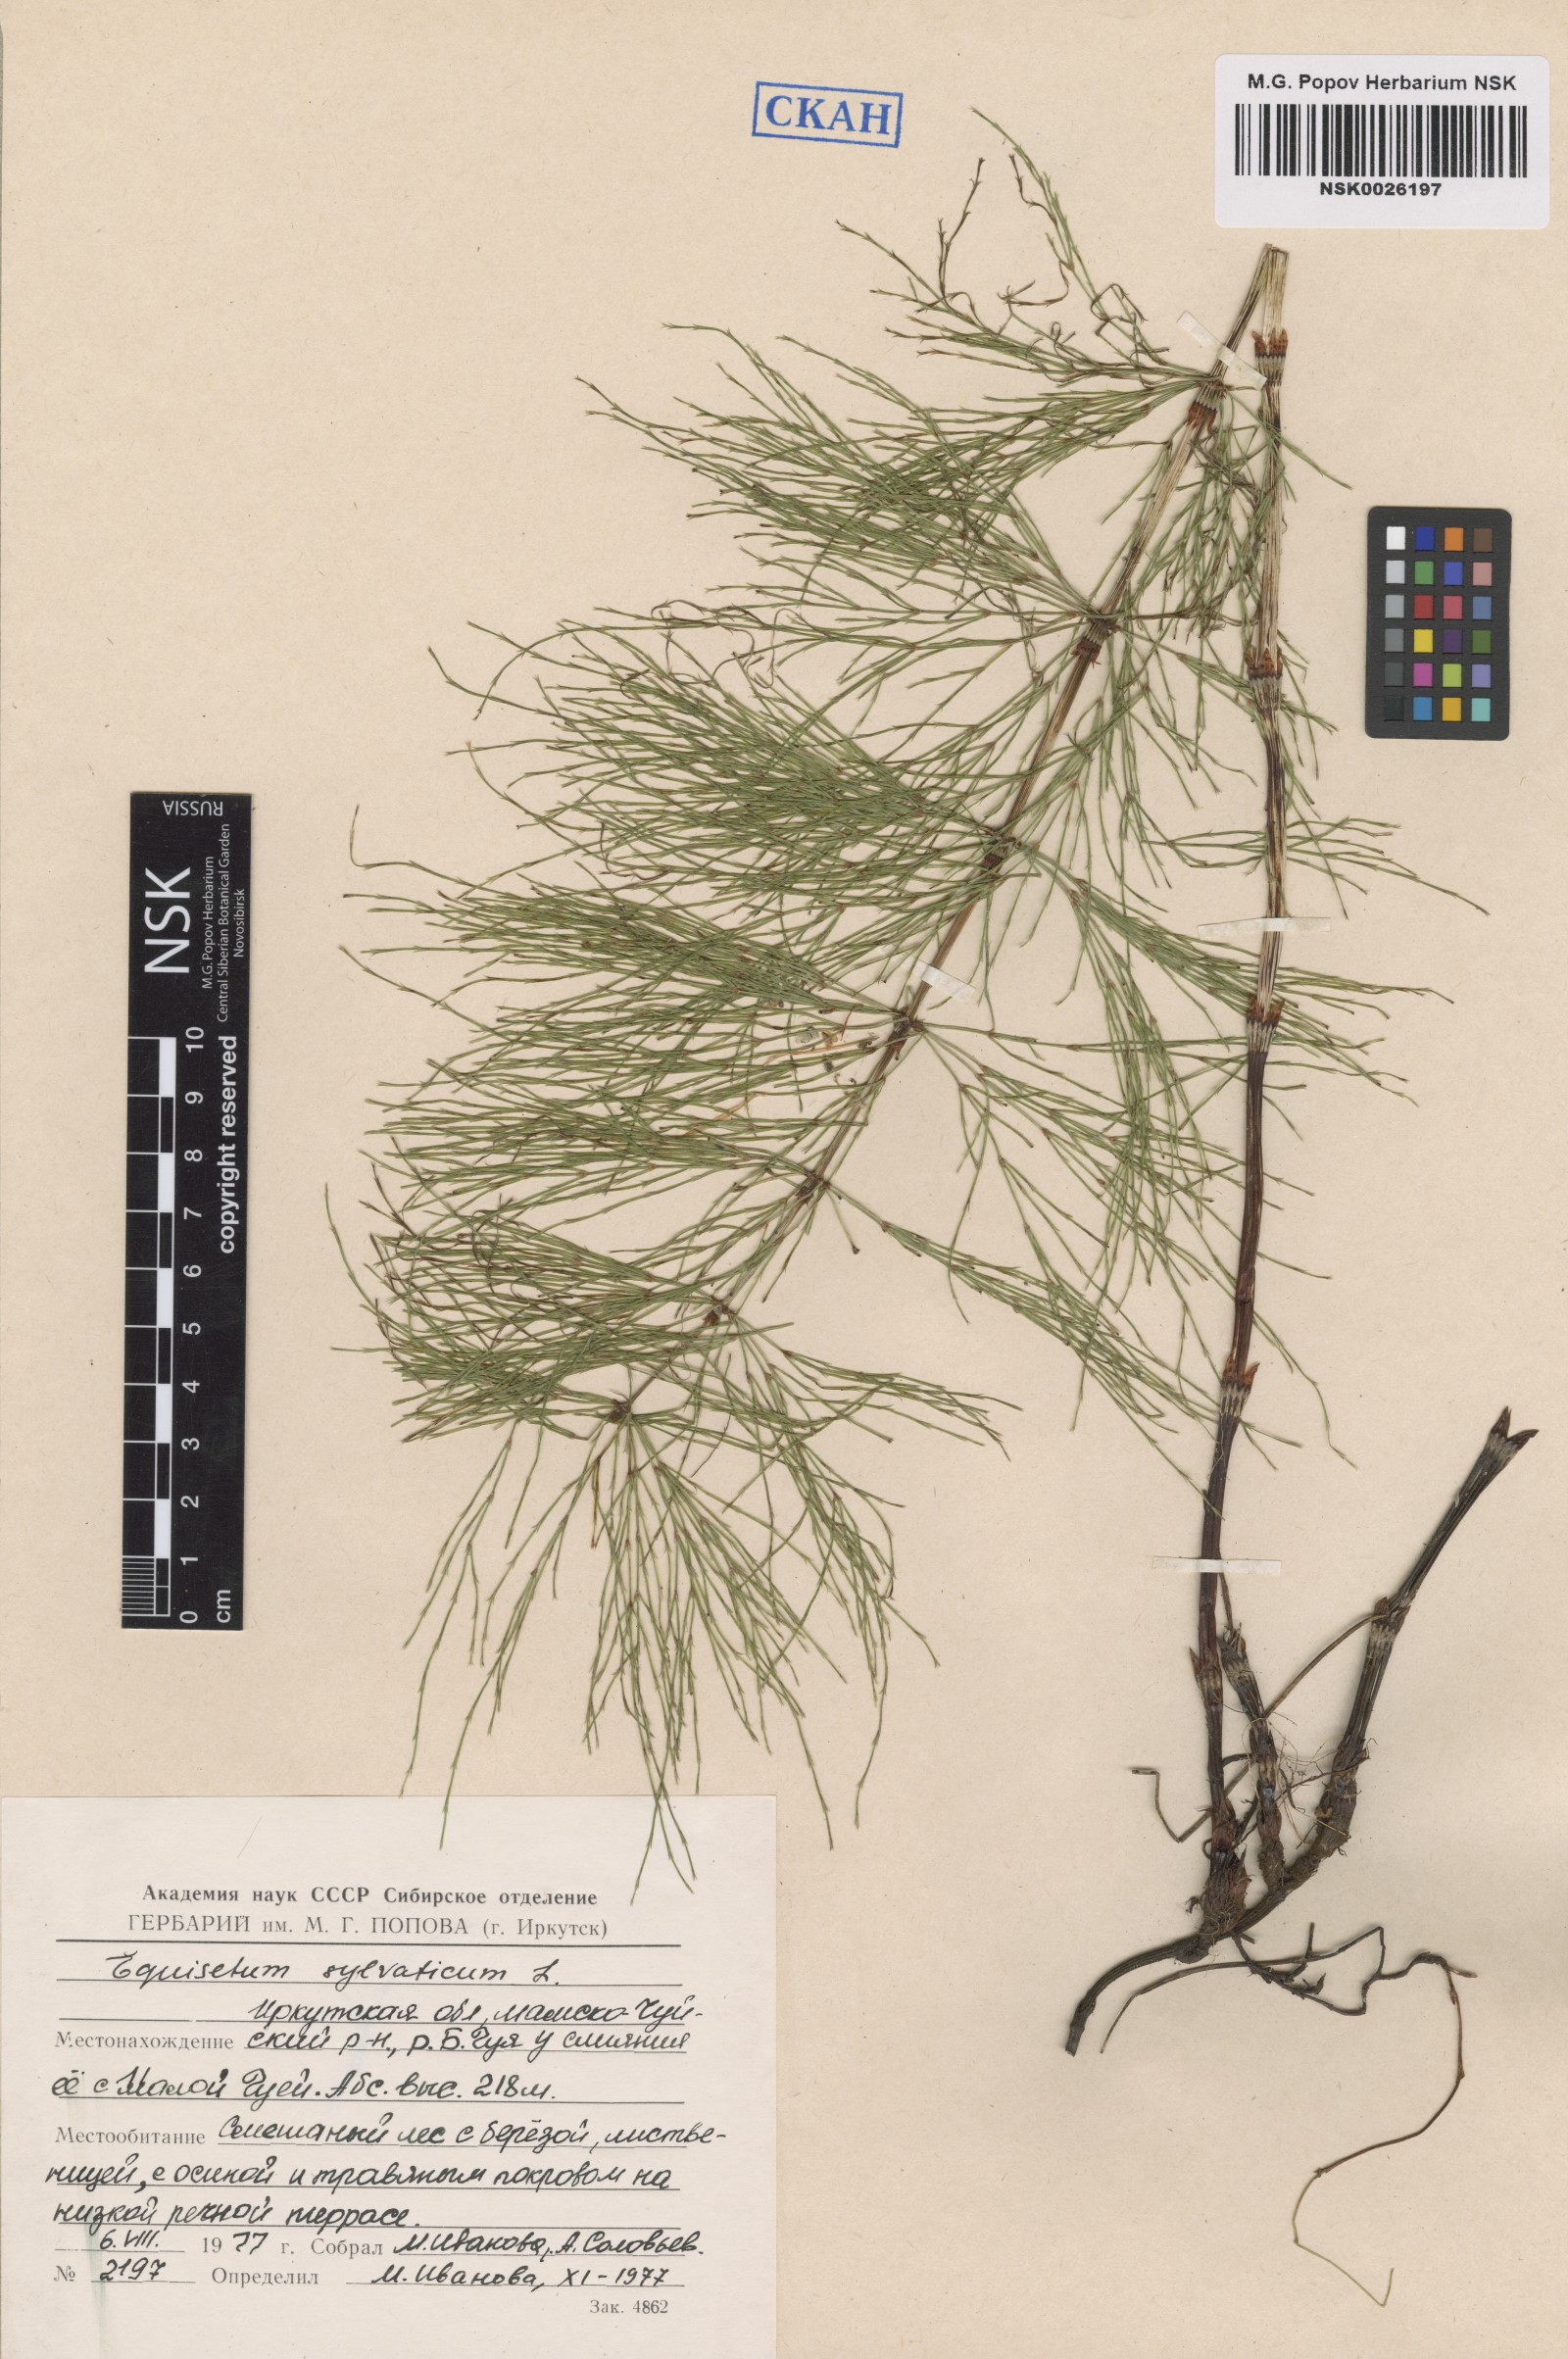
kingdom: Plantae
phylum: Tracheophyta
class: Polypodiopsida
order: Equisetales
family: Equisetaceae
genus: Equisetum
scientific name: Equisetum sylvaticum
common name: Wood horsetail
